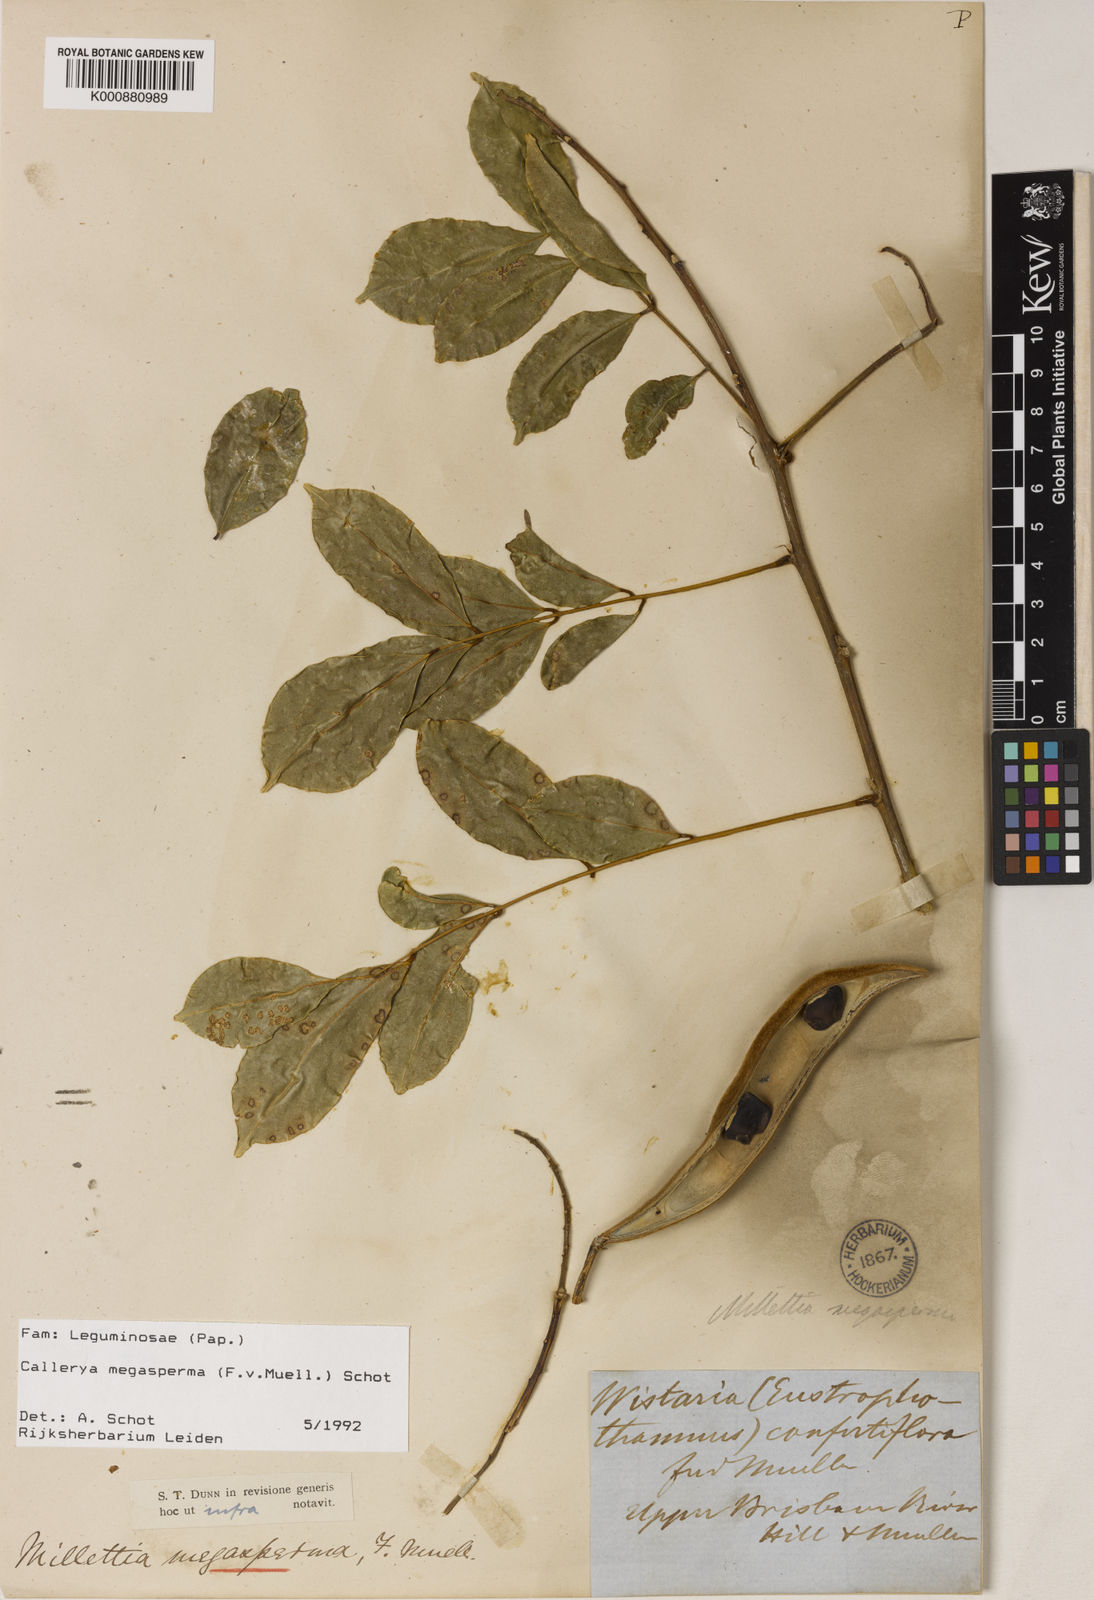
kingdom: Plantae
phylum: Tracheophyta
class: Magnoliopsida
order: Fabales
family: Fabaceae
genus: Austrocallerya
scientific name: Austrocallerya megasperma
